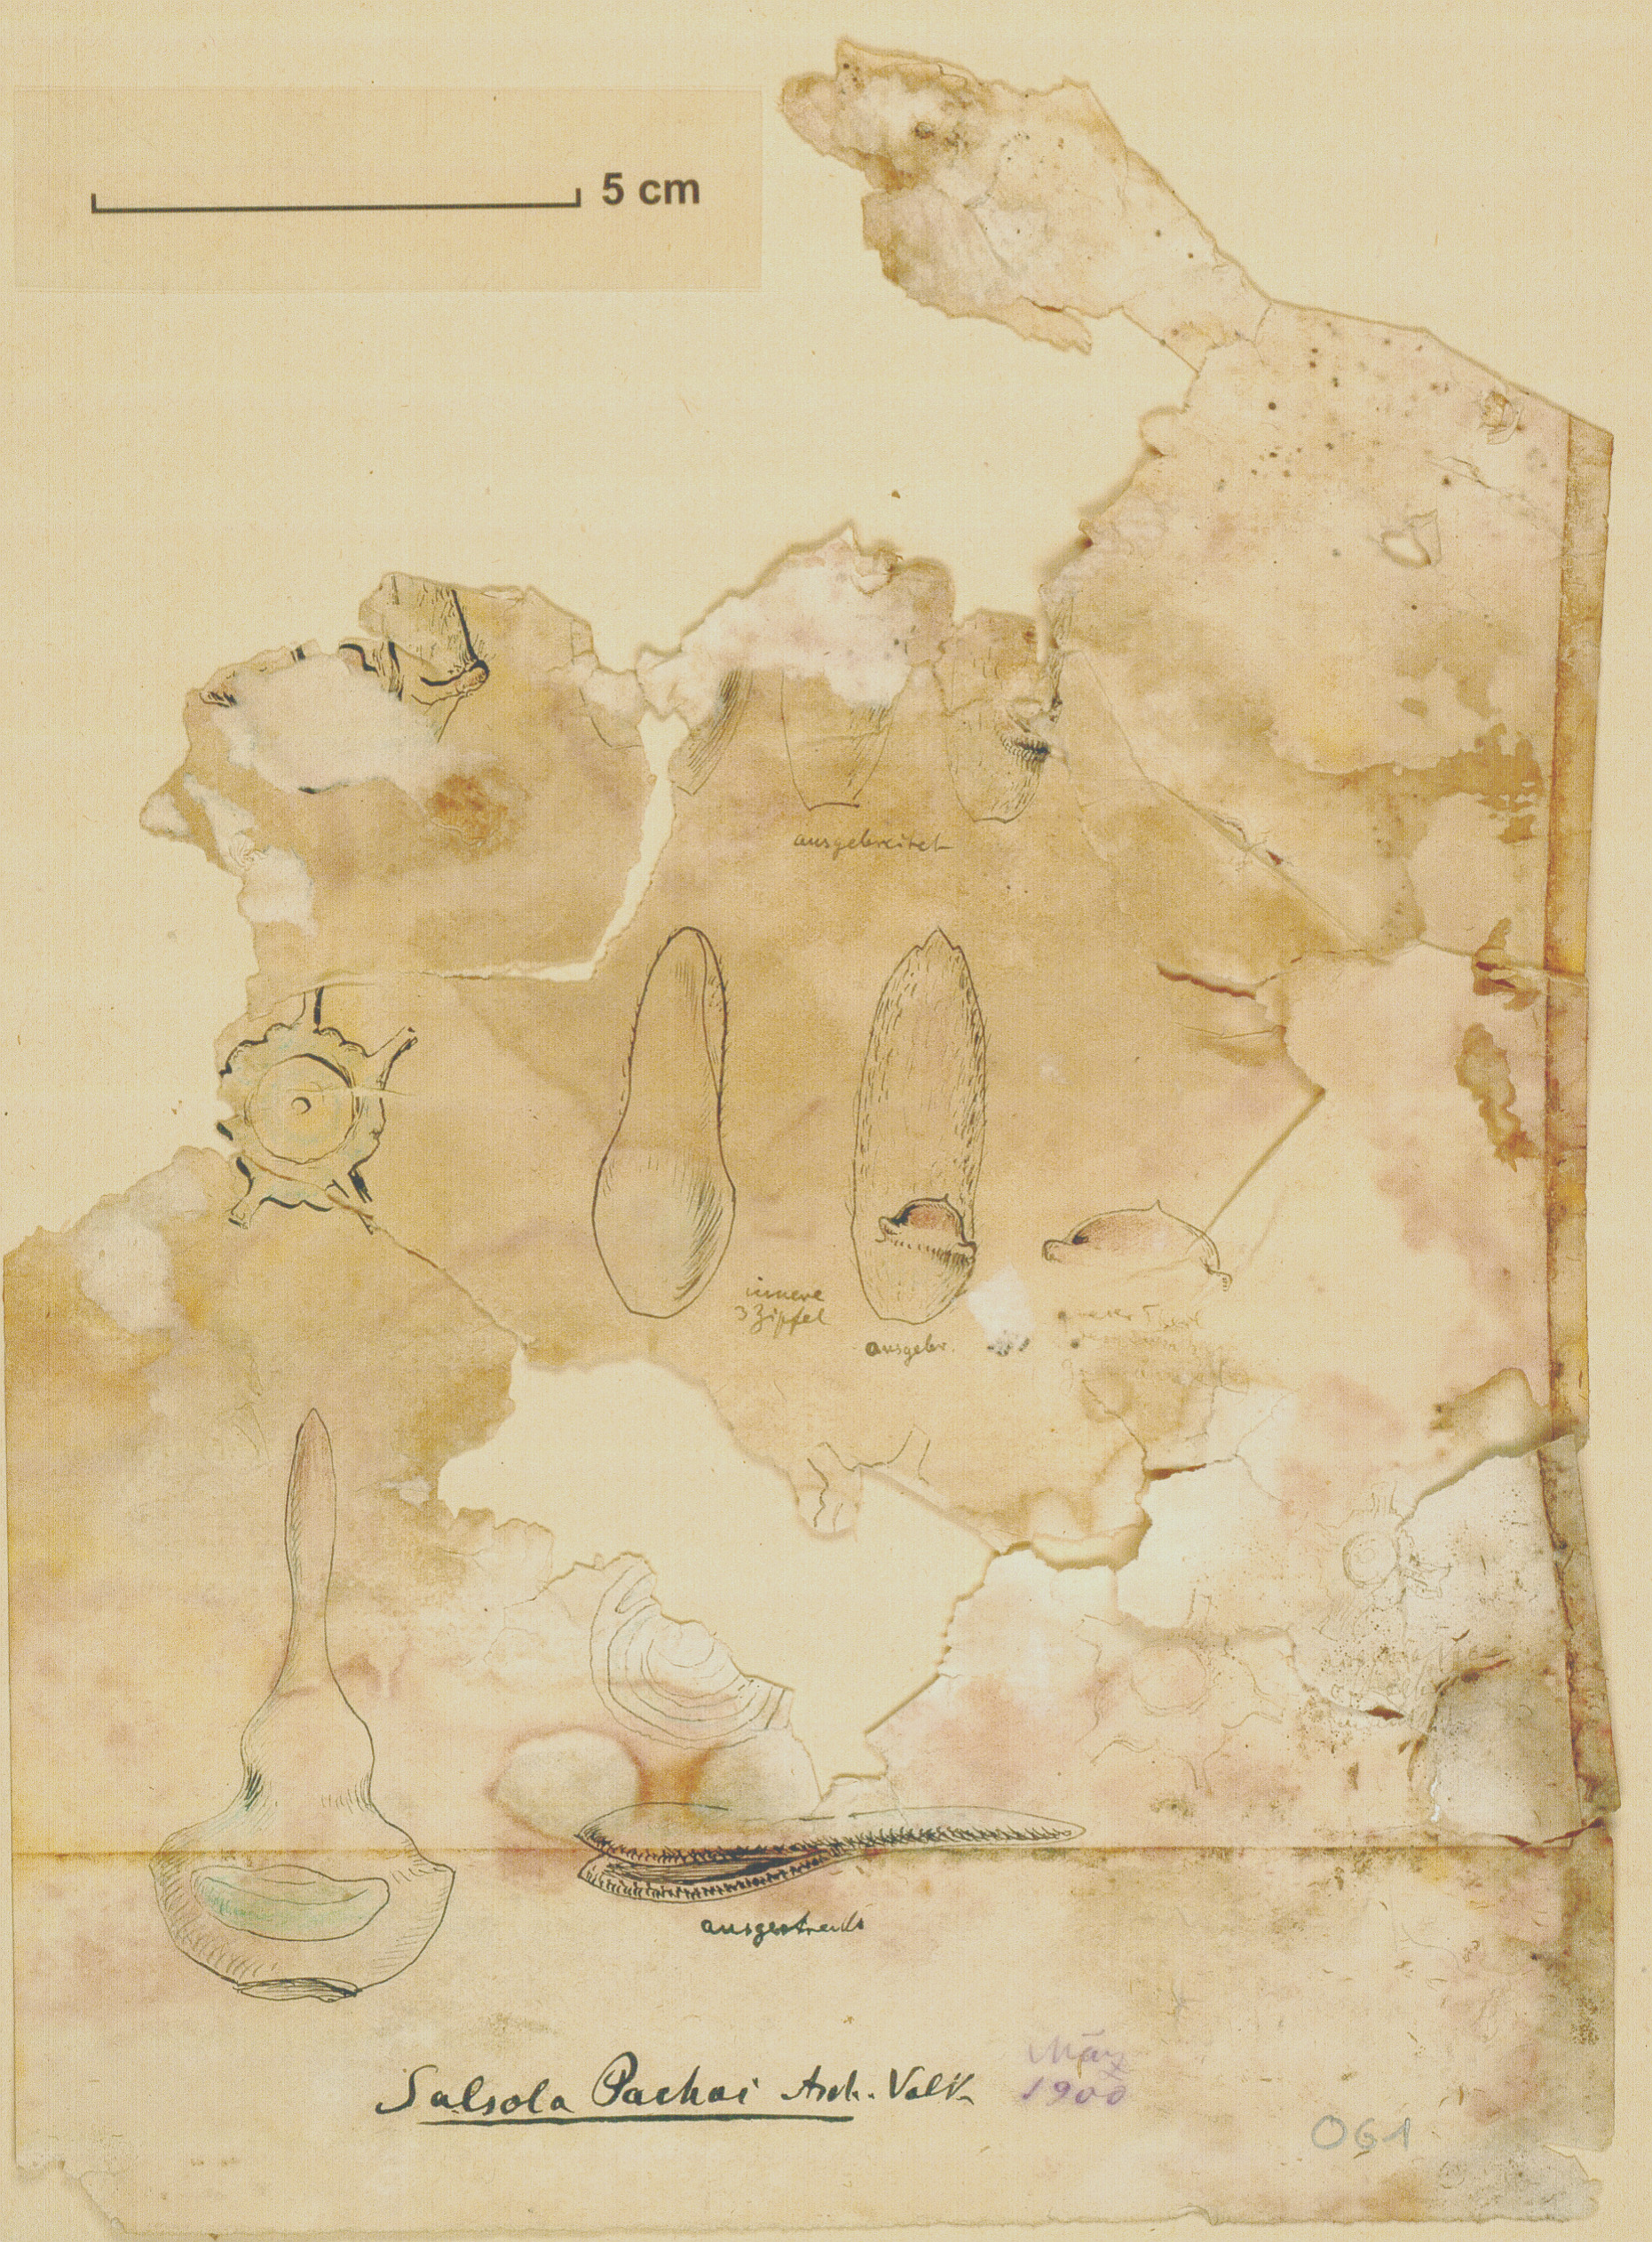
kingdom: Plantae
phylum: Tracheophyta
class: Magnoliopsida
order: Caryophyllales
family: Amaranthaceae
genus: Caroxylon
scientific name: Caroxylon tetrandrum
